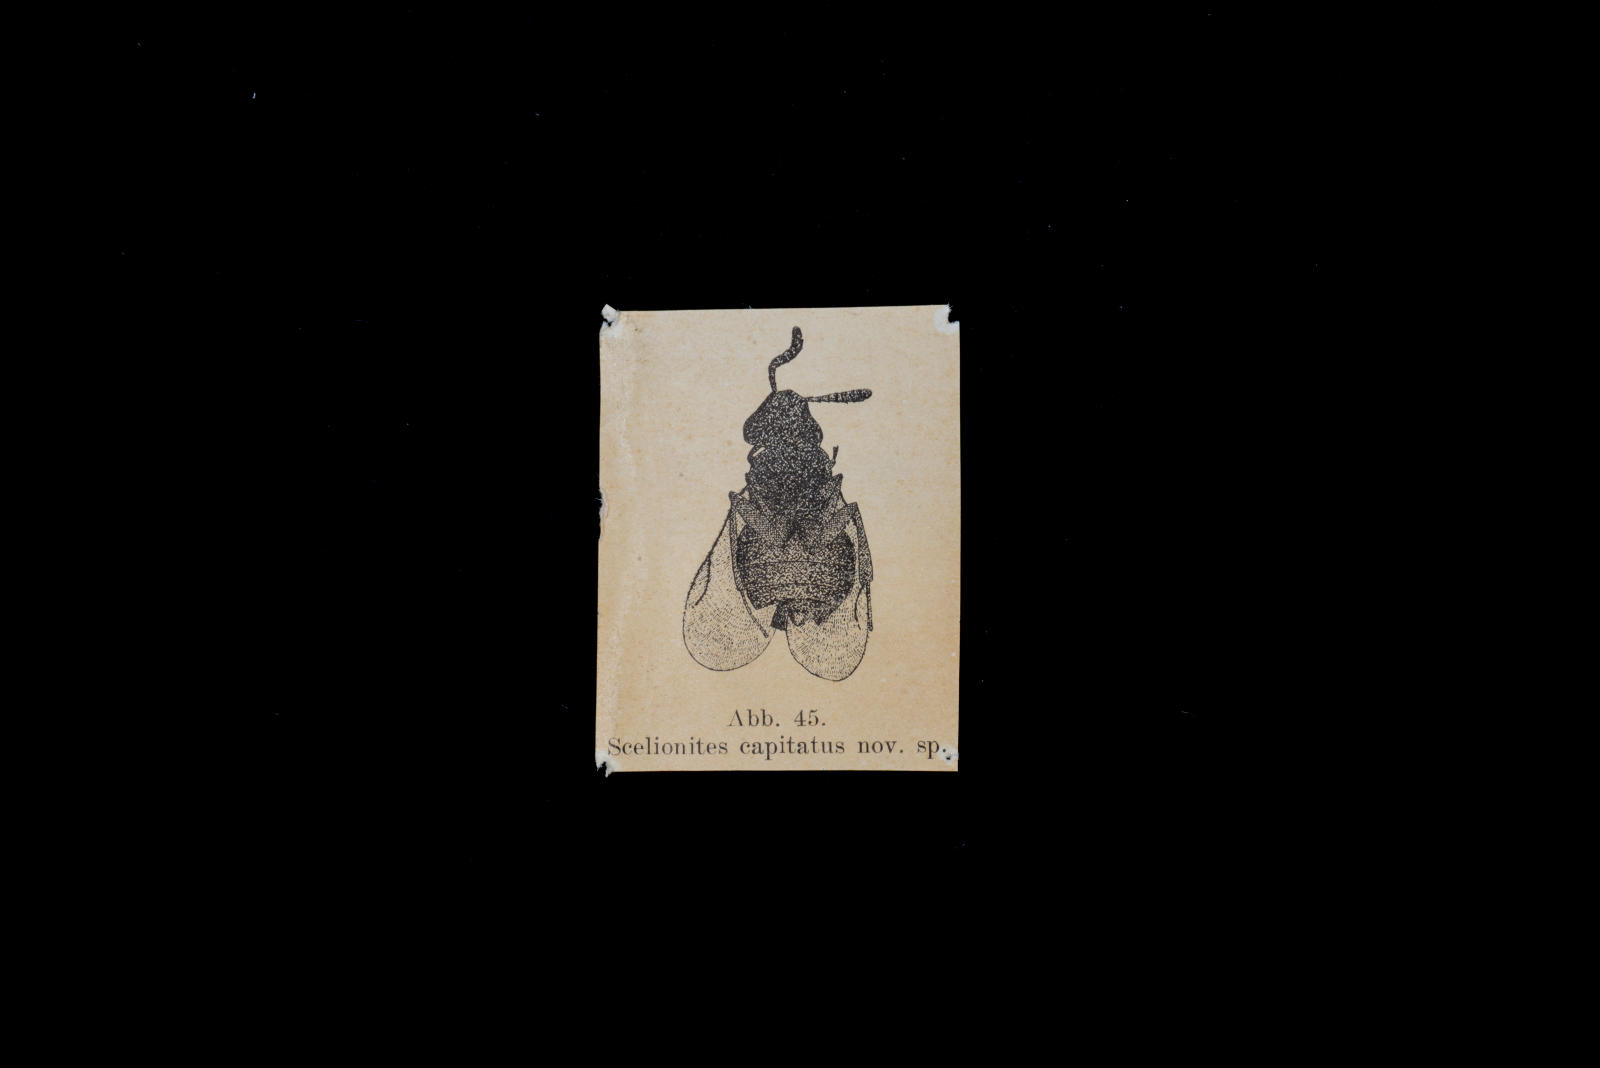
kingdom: Animalia
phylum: Arthropoda
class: Insecta
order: Hymenoptera
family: Scelionidae
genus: Scelionites
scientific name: Scelionites capitatus
